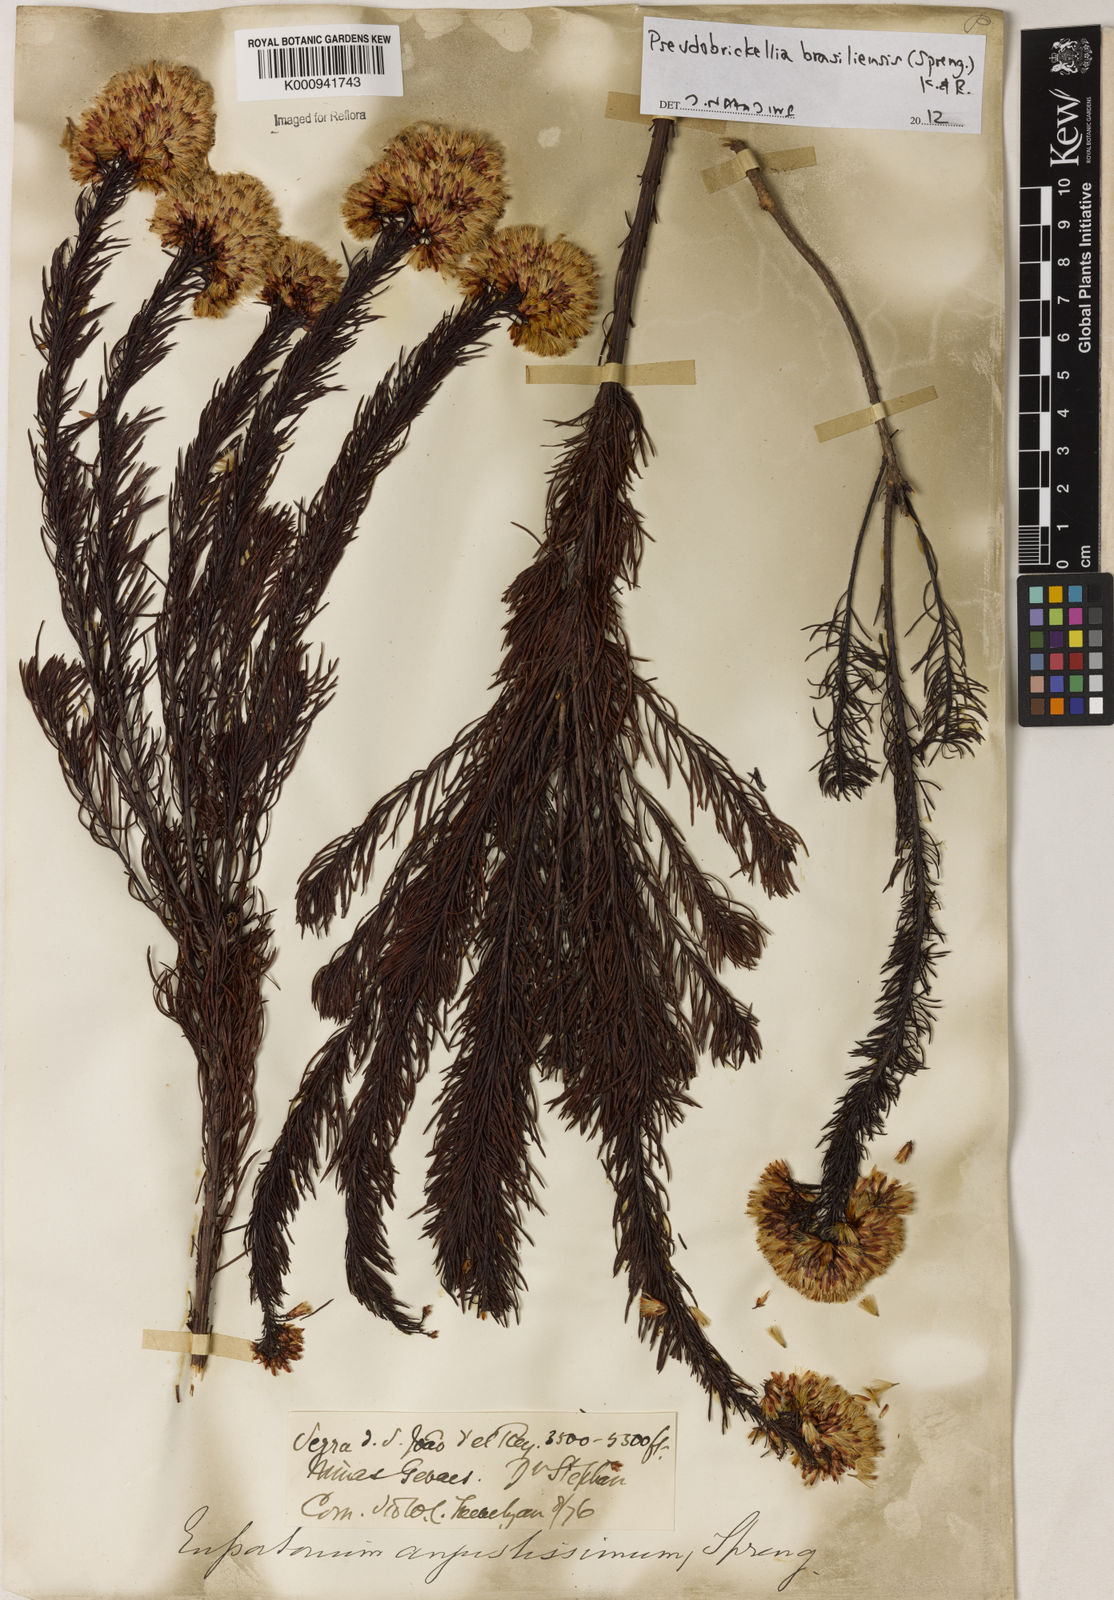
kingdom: Plantae
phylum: Tracheophyta
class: Magnoliopsida
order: Asterales
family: Asteraceae
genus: Pseudobrickellia
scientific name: Pseudobrickellia brasiliensis
